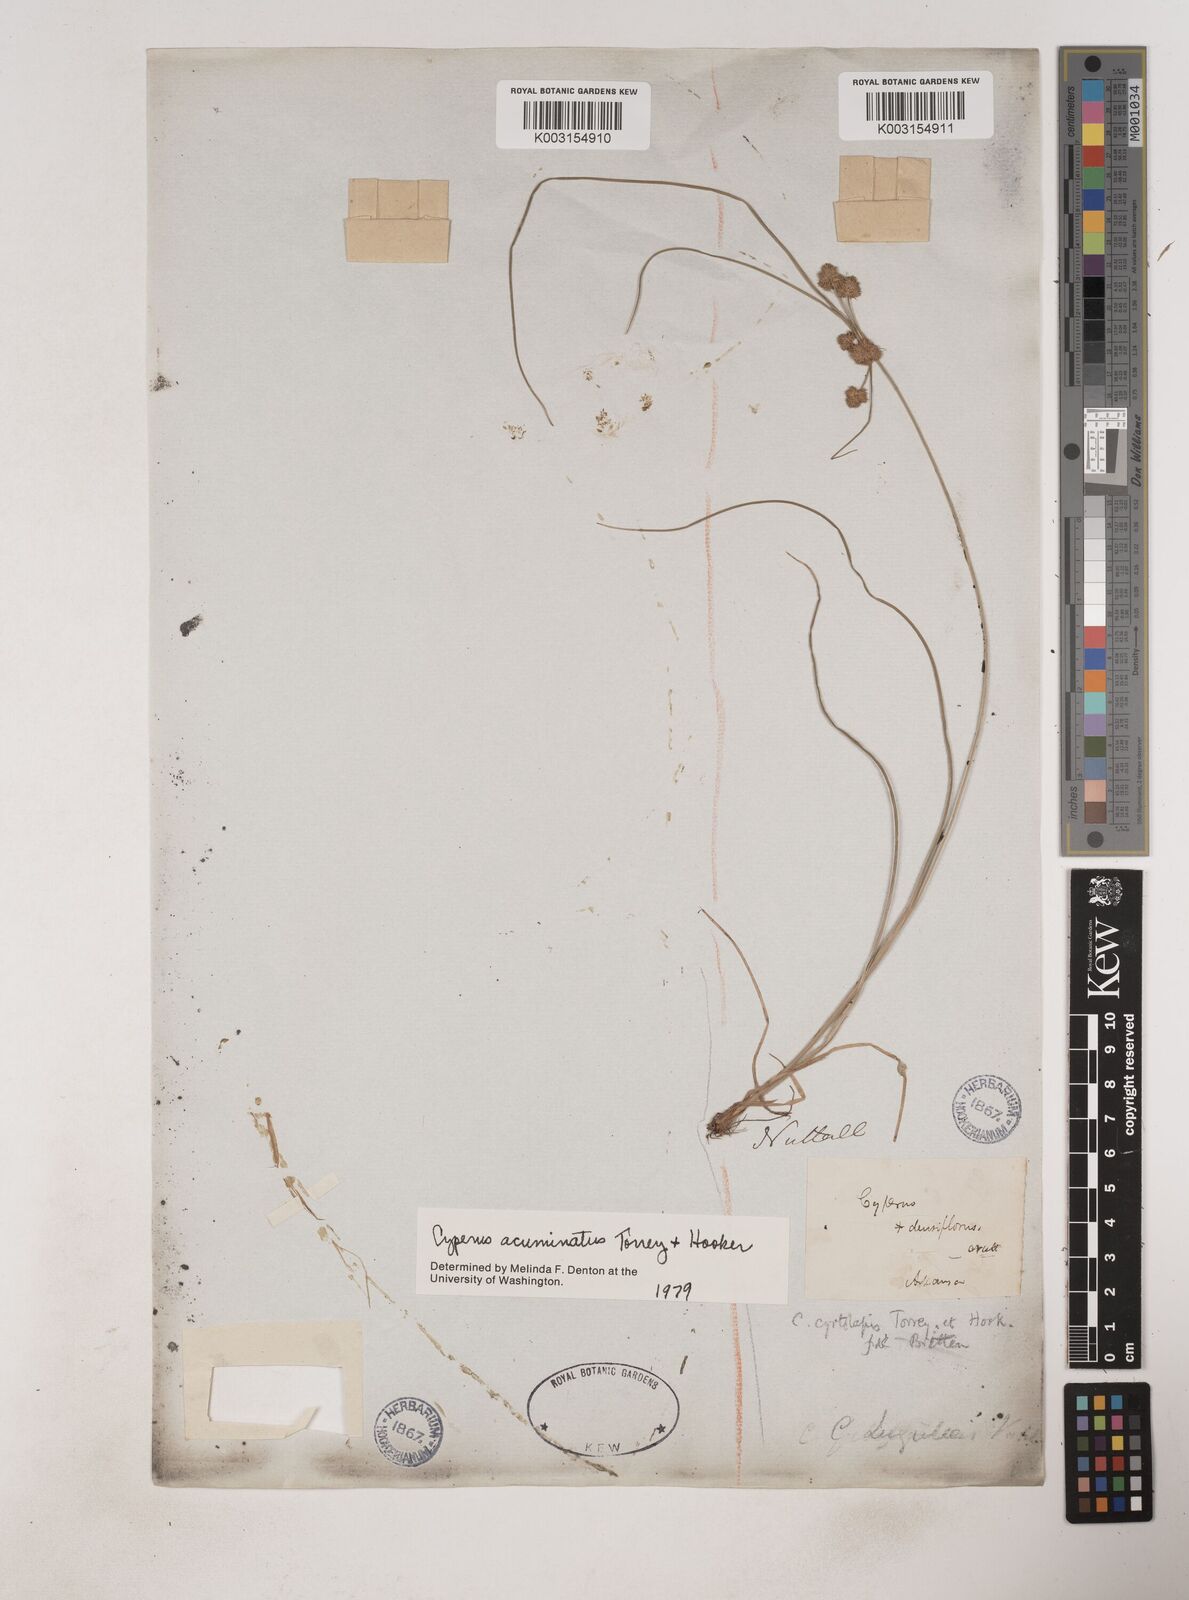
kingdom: Plantae
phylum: Tracheophyta
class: Liliopsida
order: Poales
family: Cyperaceae
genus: Cyperus
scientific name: Cyperus acuminatus
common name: Short-pointed cyperus
